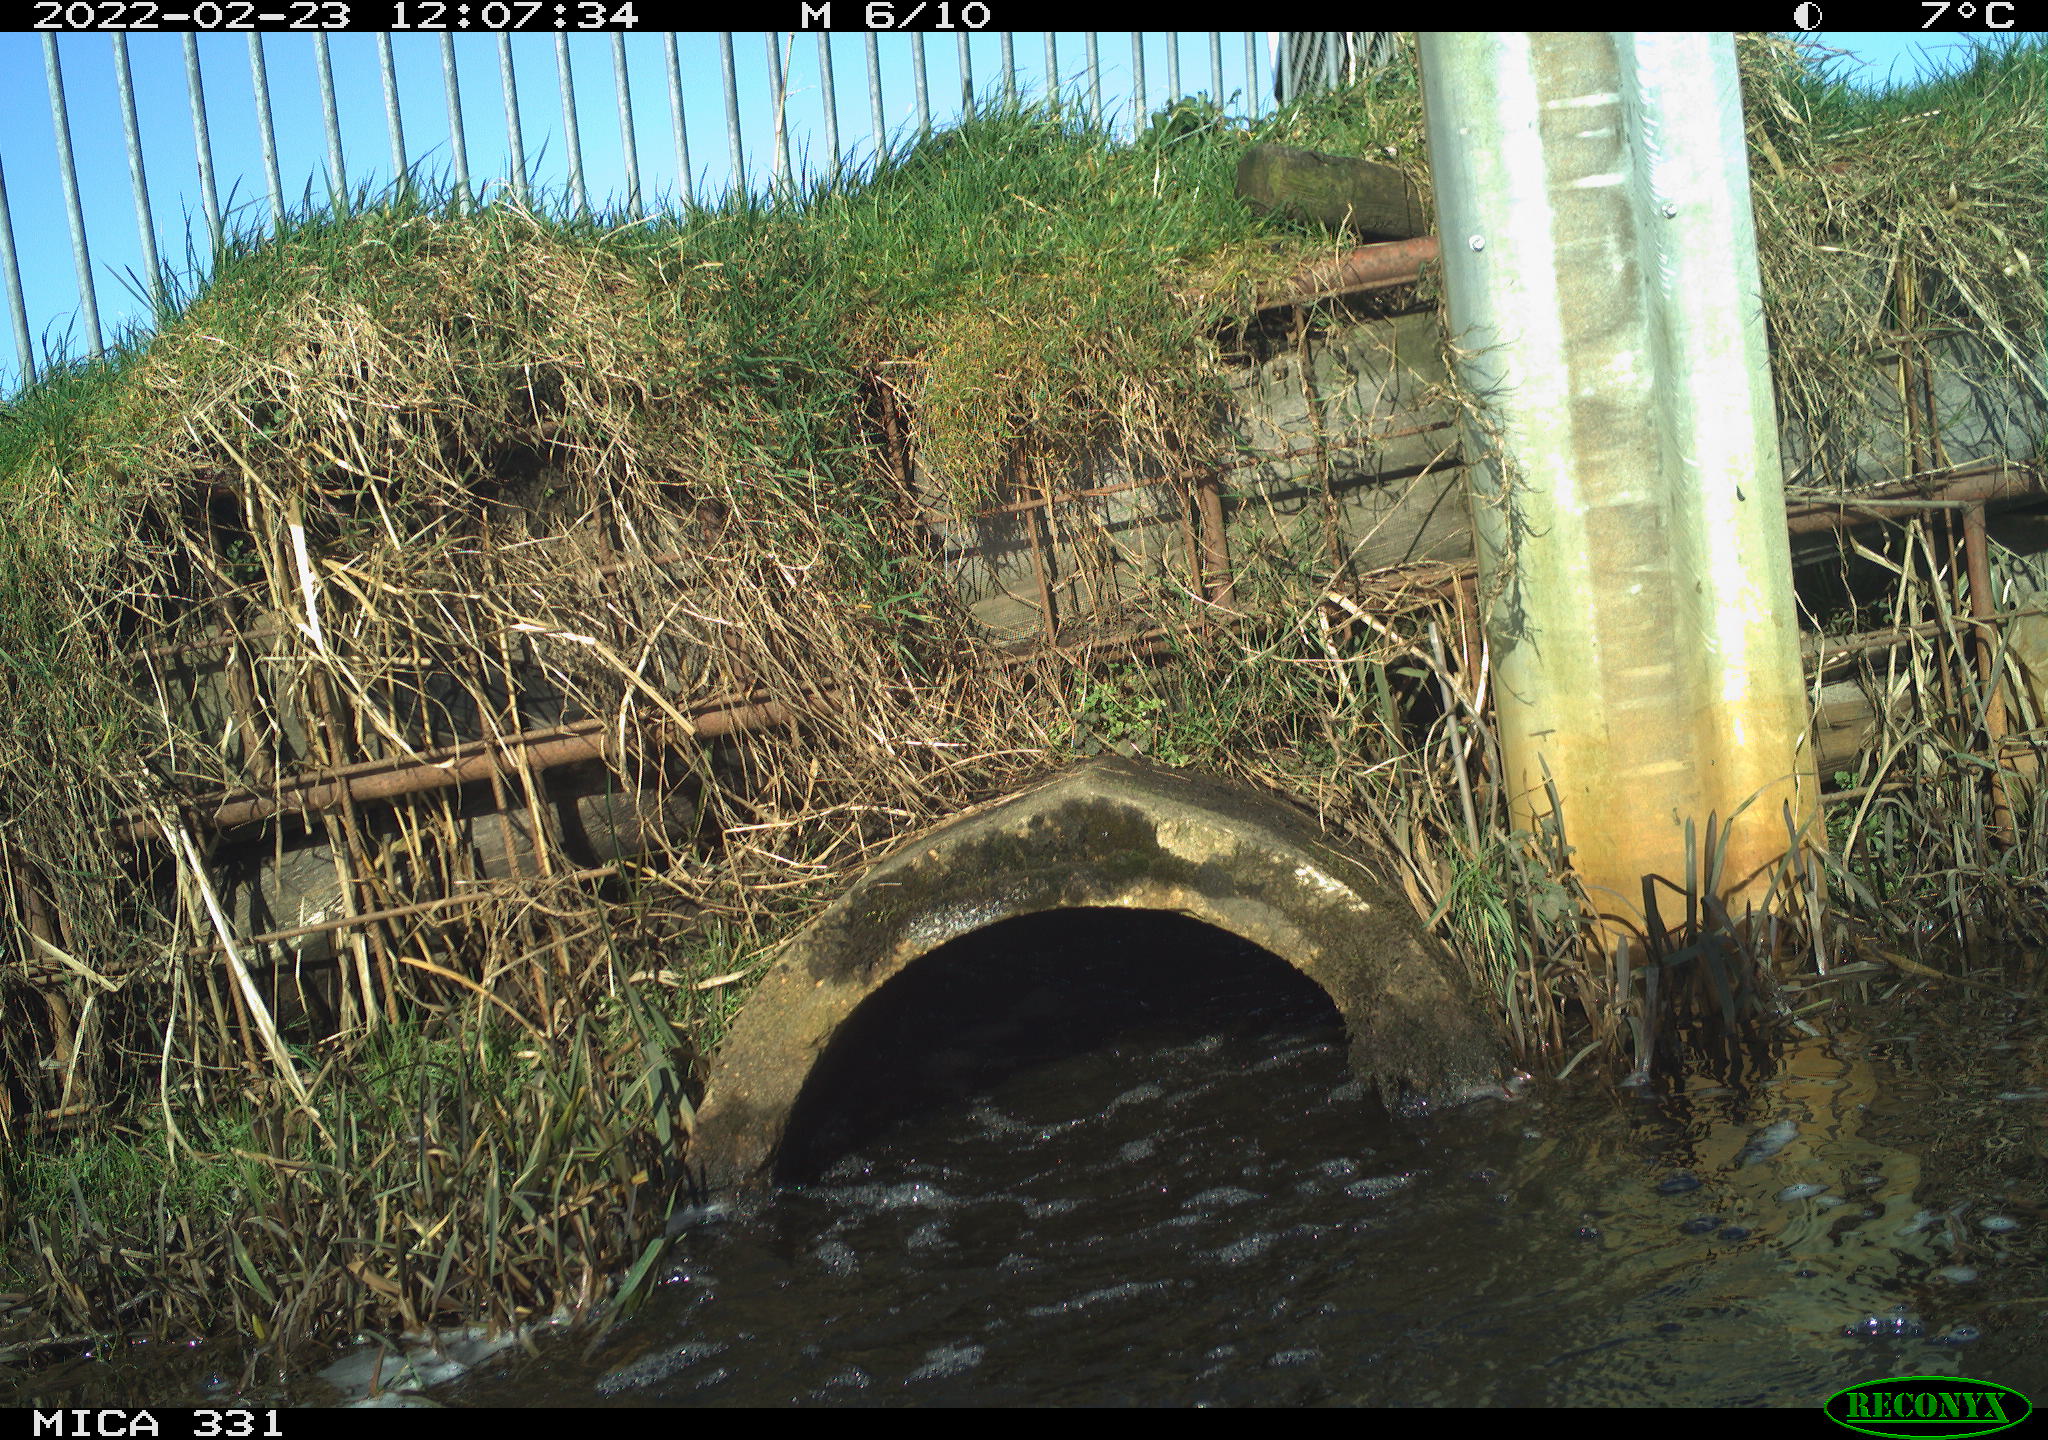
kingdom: Animalia
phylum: Chordata
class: Aves
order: Pelecaniformes
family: Ardeidae
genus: Ardea
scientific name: Ardea alba
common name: Great egret
